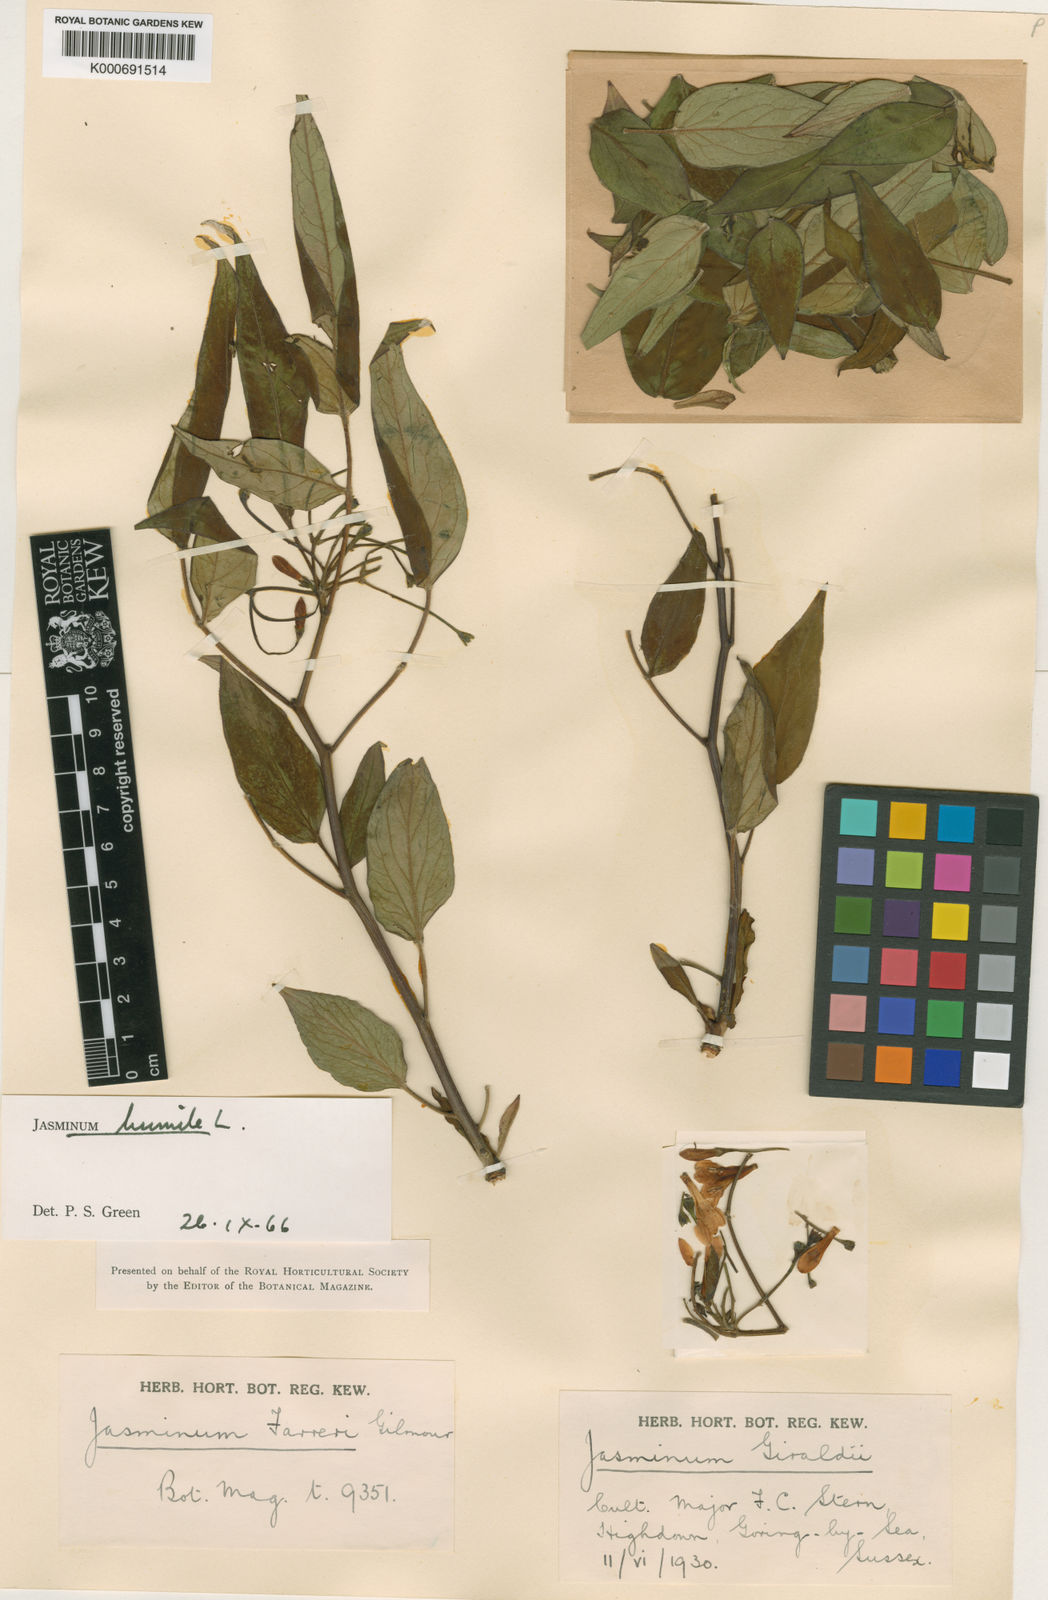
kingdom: Plantae
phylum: Tracheophyta
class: Magnoliopsida
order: Lamiales
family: Oleaceae
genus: Chrysojasminum
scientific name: Chrysojasminum humile
